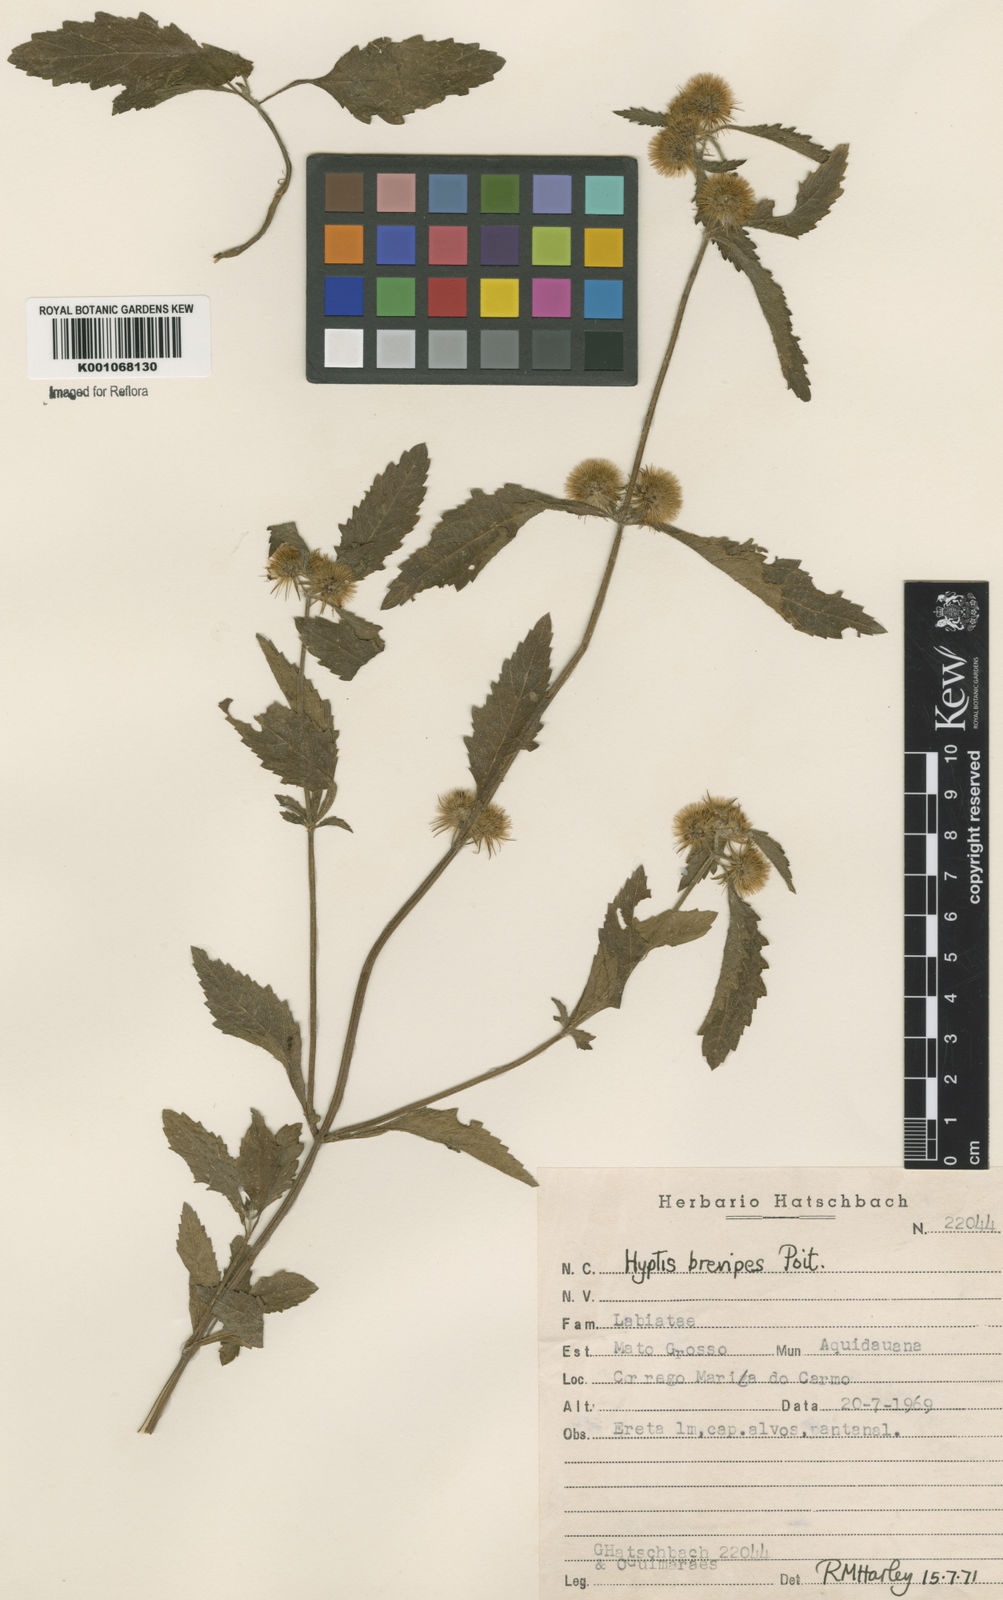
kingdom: Plantae
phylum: Tracheophyta
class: Magnoliopsida
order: Lamiales
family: Lamiaceae
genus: Hyptis
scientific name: Hyptis brevipes
